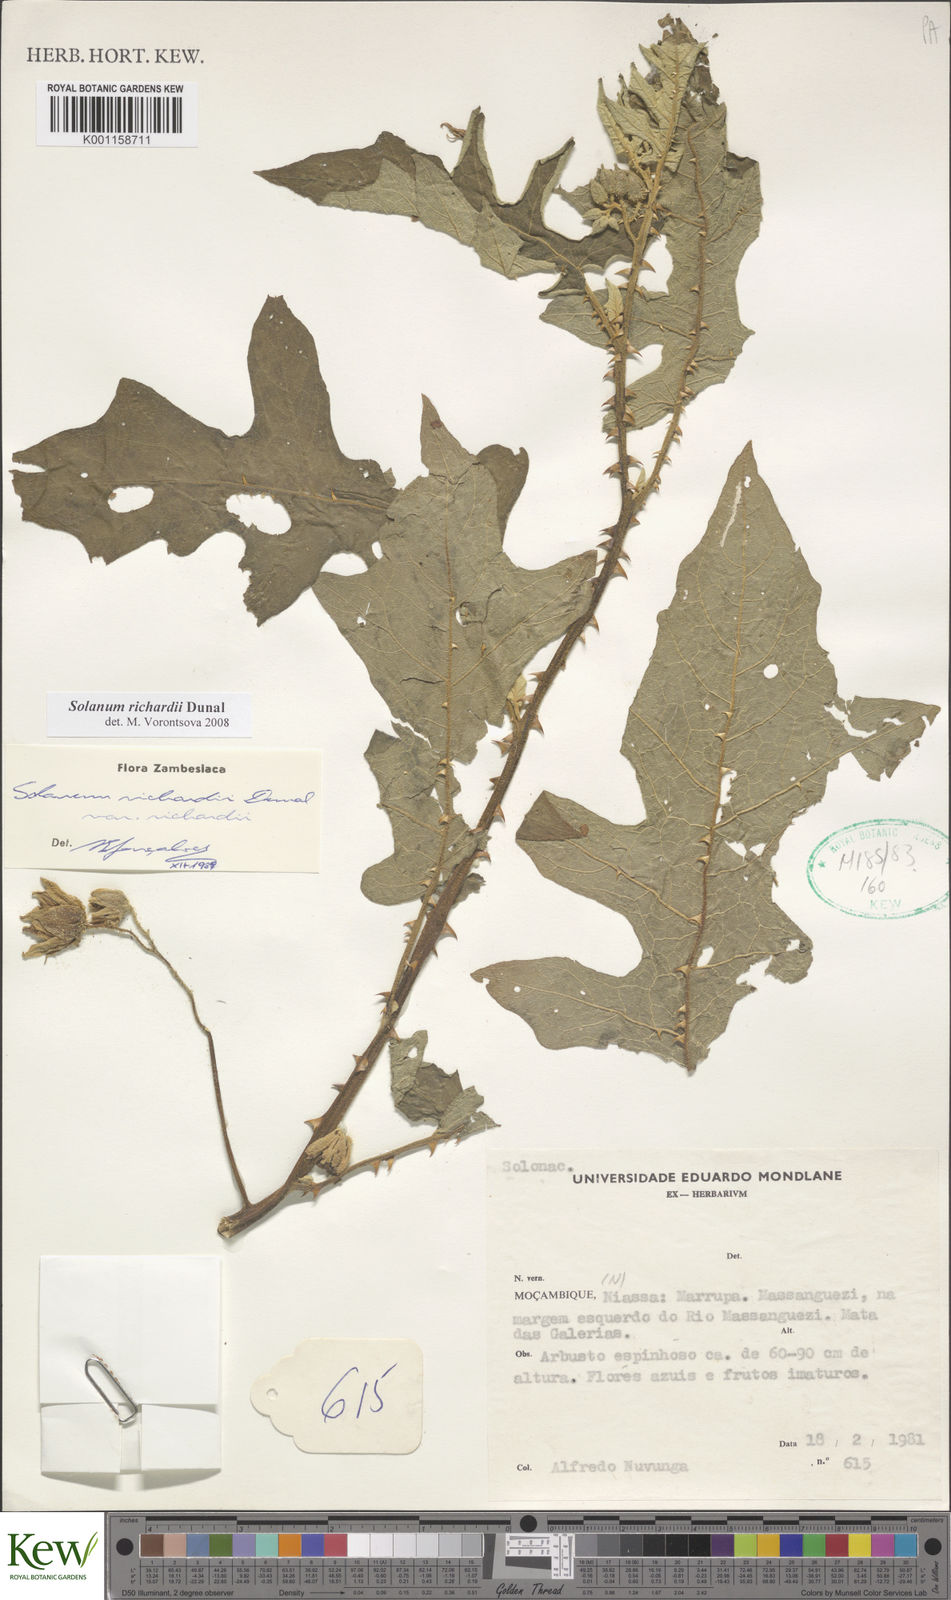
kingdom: Plantae
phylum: Tracheophyta
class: Magnoliopsida
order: Solanales
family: Solanaceae
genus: Solanum
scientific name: Solanum richardii
